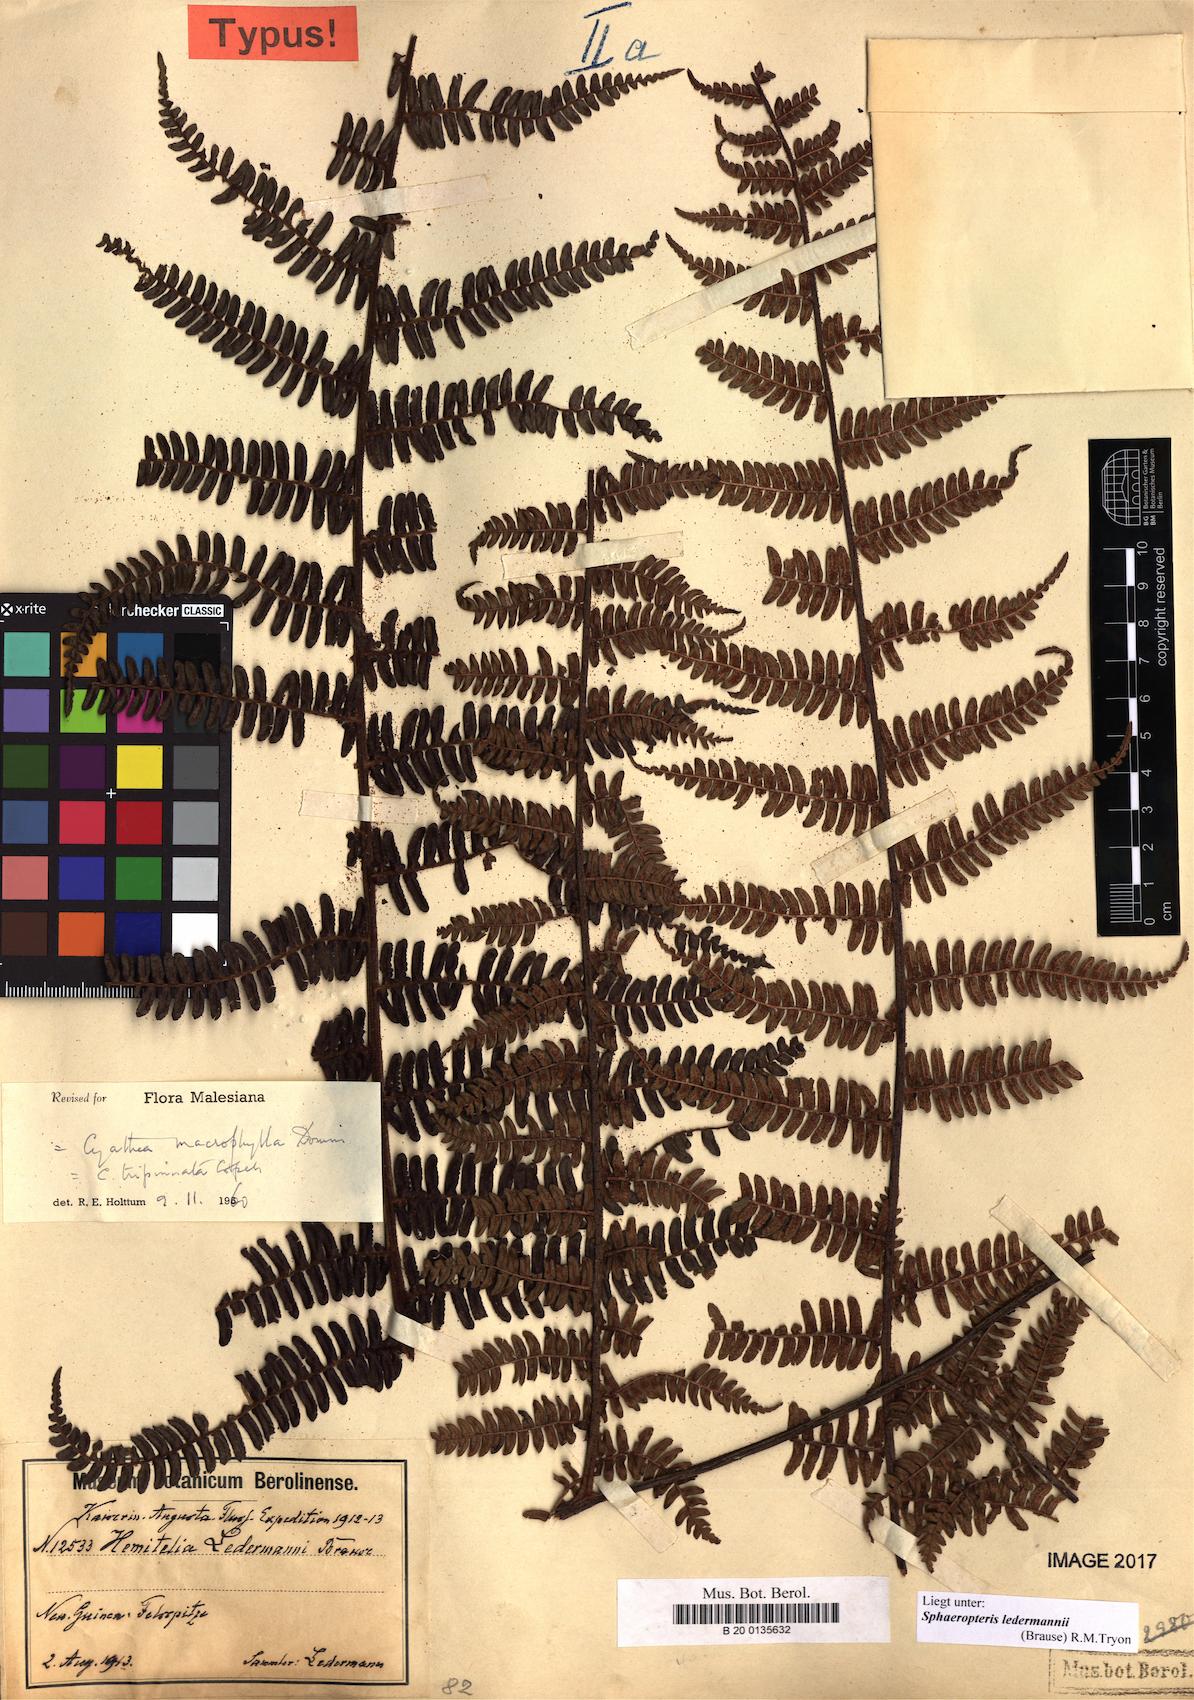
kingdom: Plantae
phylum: Tracheophyta
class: Polypodiopsida
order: Cyatheales
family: Cyatheaceae
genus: Sphaeropteris
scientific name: Sphaeropteris ledermannii
